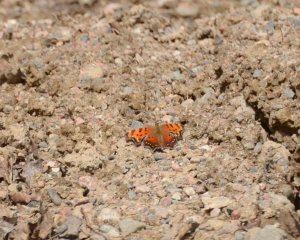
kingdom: Animalia
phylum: Arthropoda
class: Insecta
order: Lepidoptera
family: Nymphalidae
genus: Polygonia
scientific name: Polygonia progne
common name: Gray Comma
